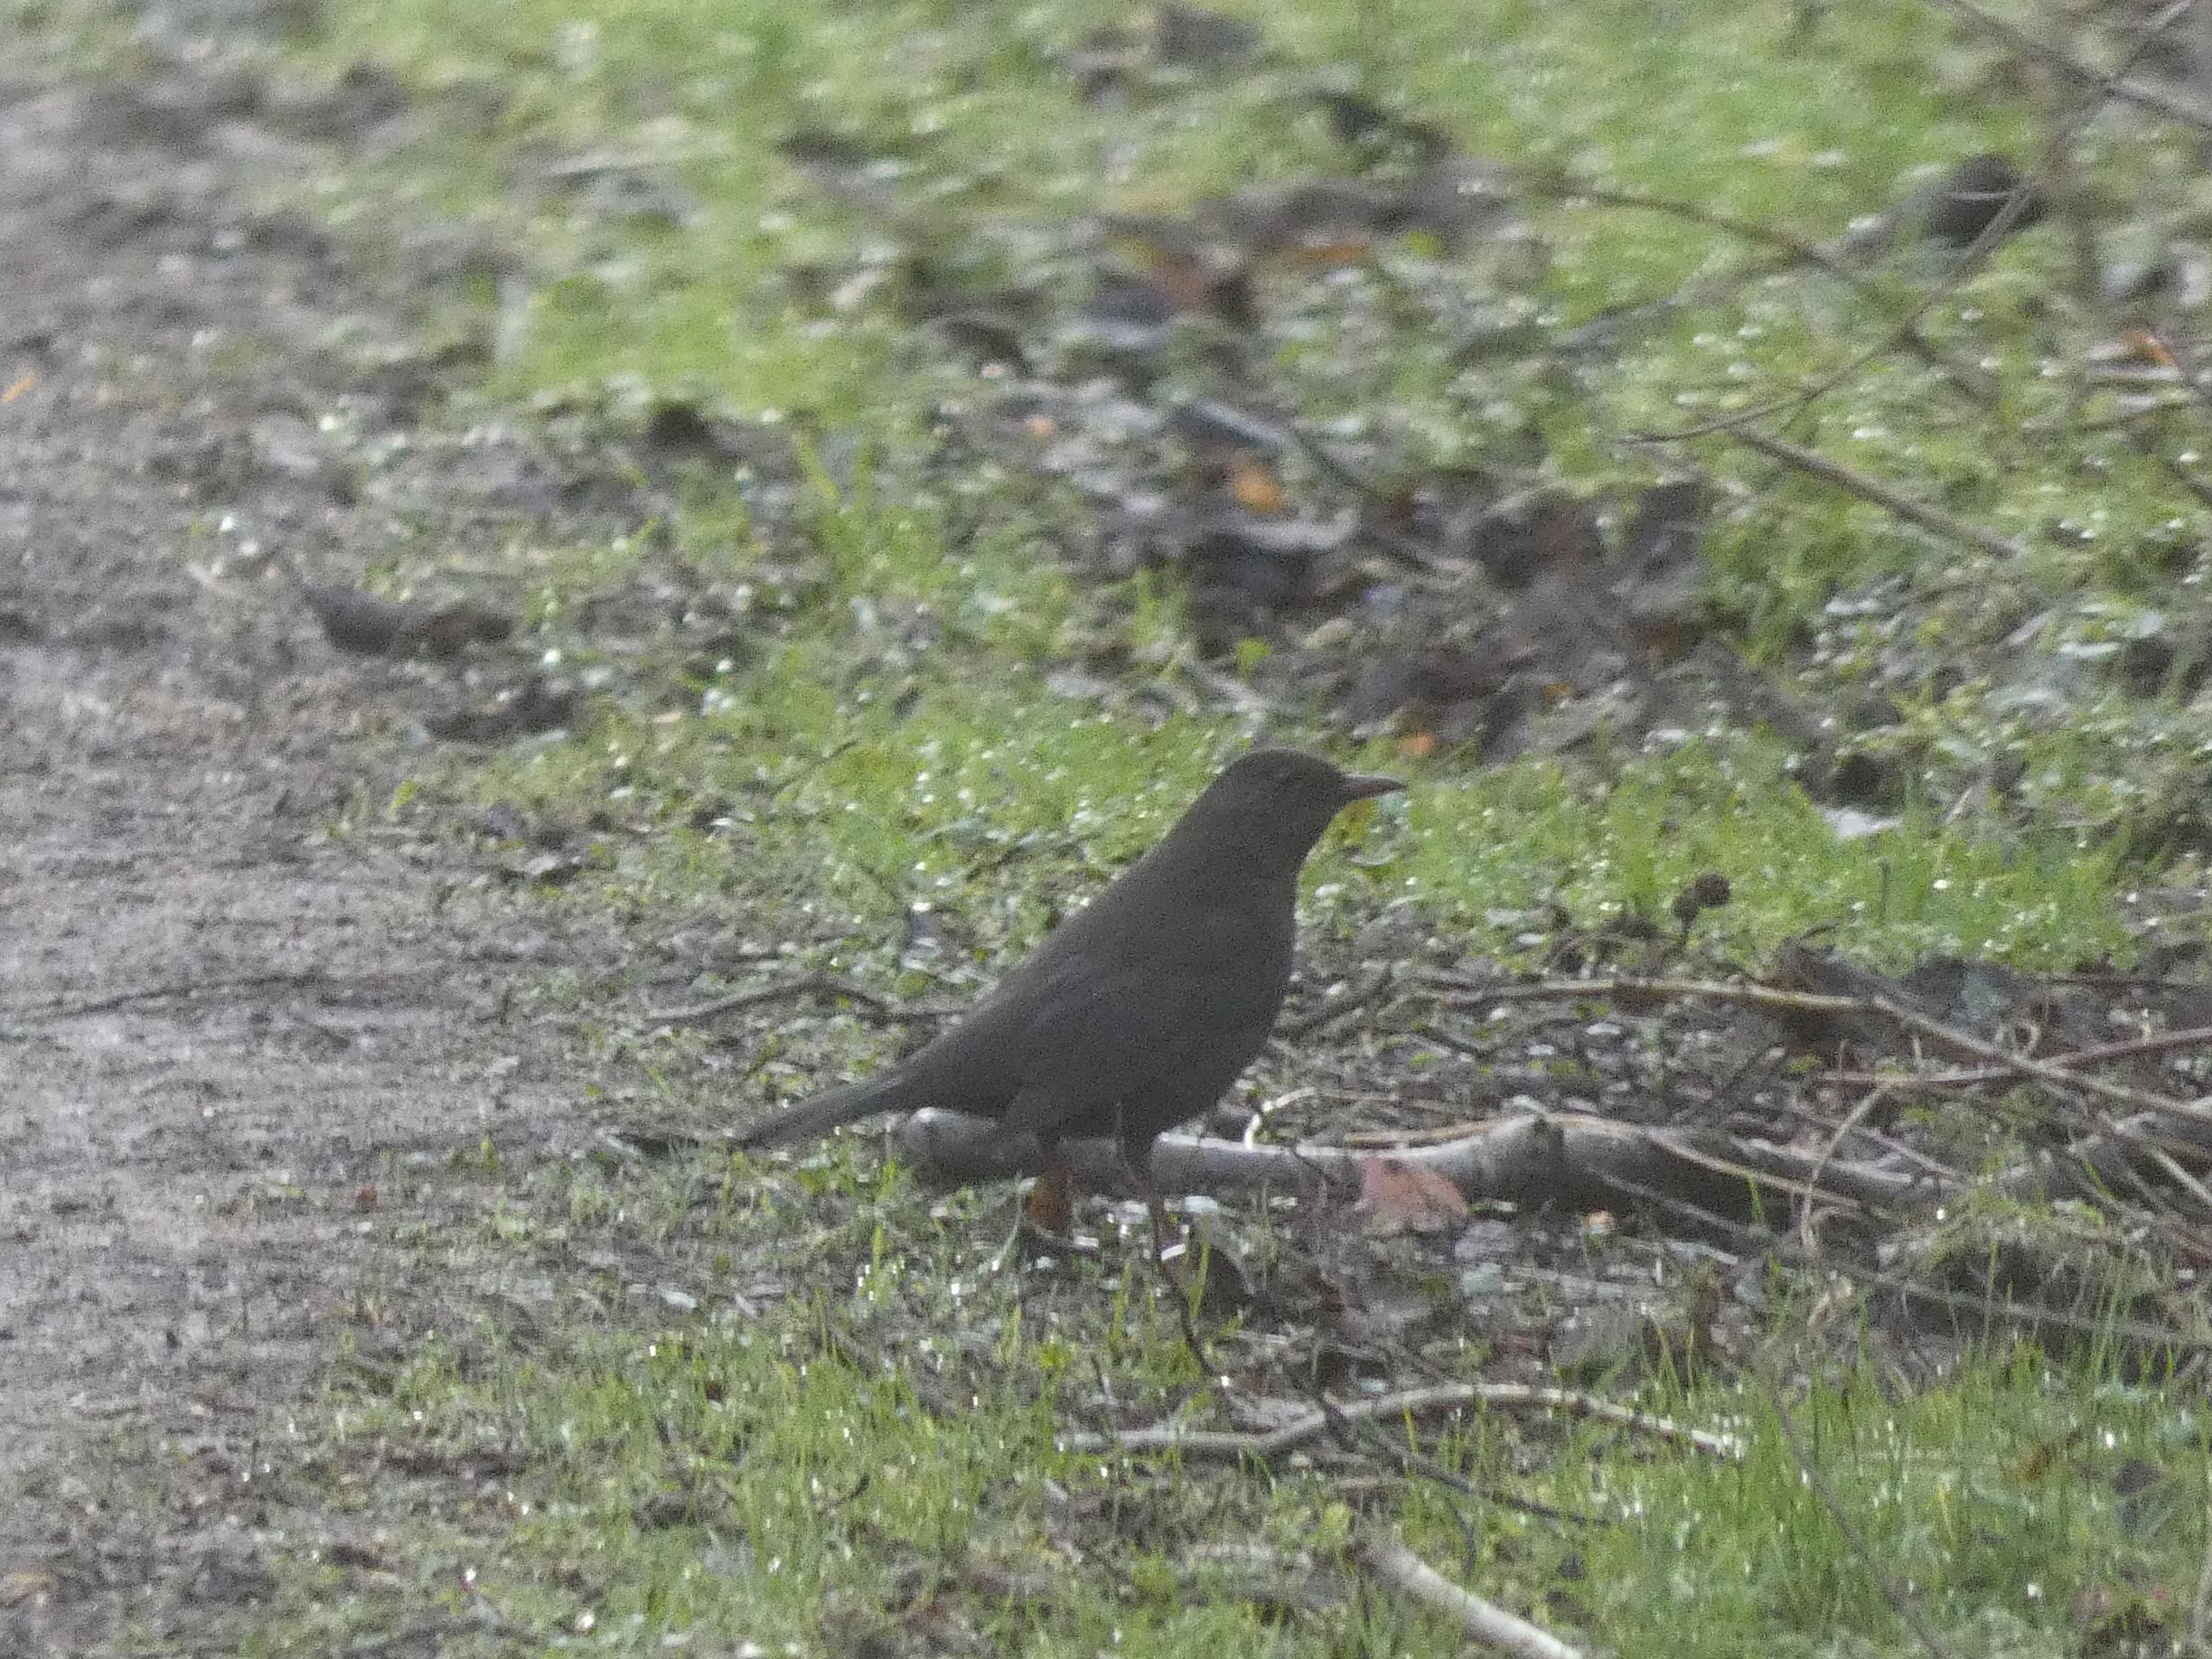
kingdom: Animalia
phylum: Chordata
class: Aves
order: Passeriformes
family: Turdidae
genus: Turdus
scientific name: Turdus merula
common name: Solsort
